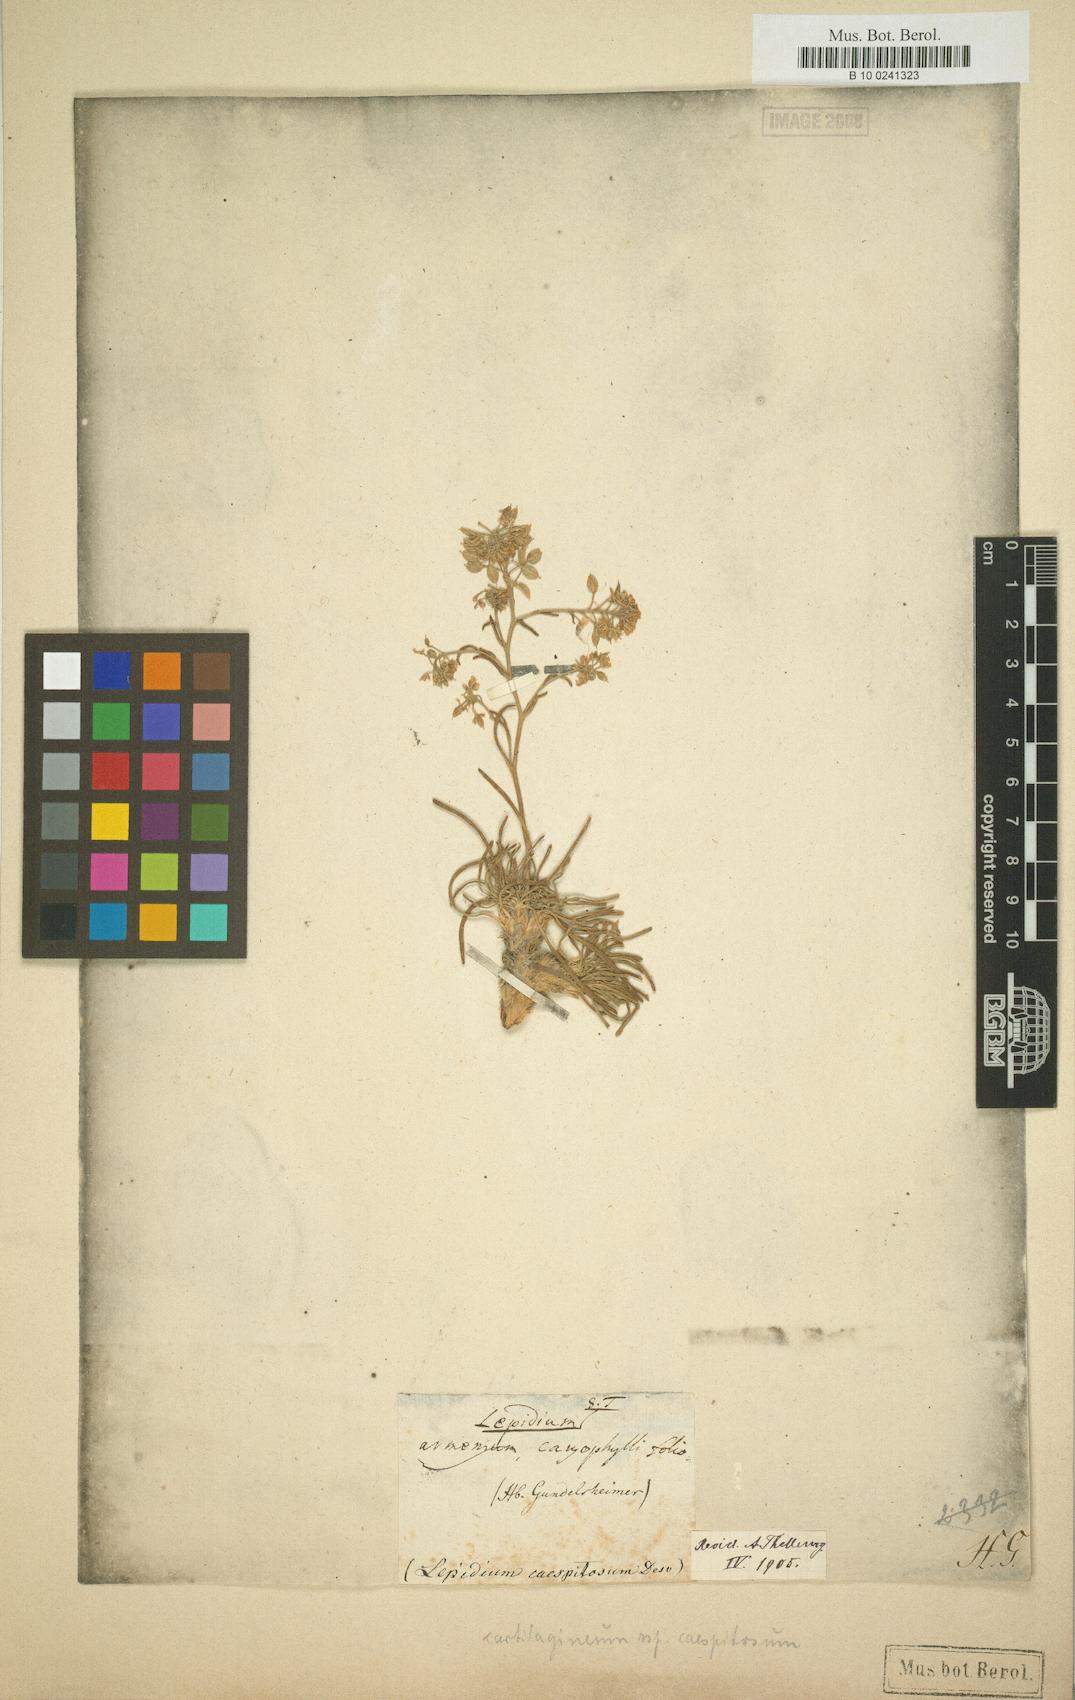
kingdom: Plantae
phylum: Tracheophyta
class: Magnoliopsida
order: Brassicales
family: Brassicaceae
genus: Lepidium
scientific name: Lepidium cartilagineum
